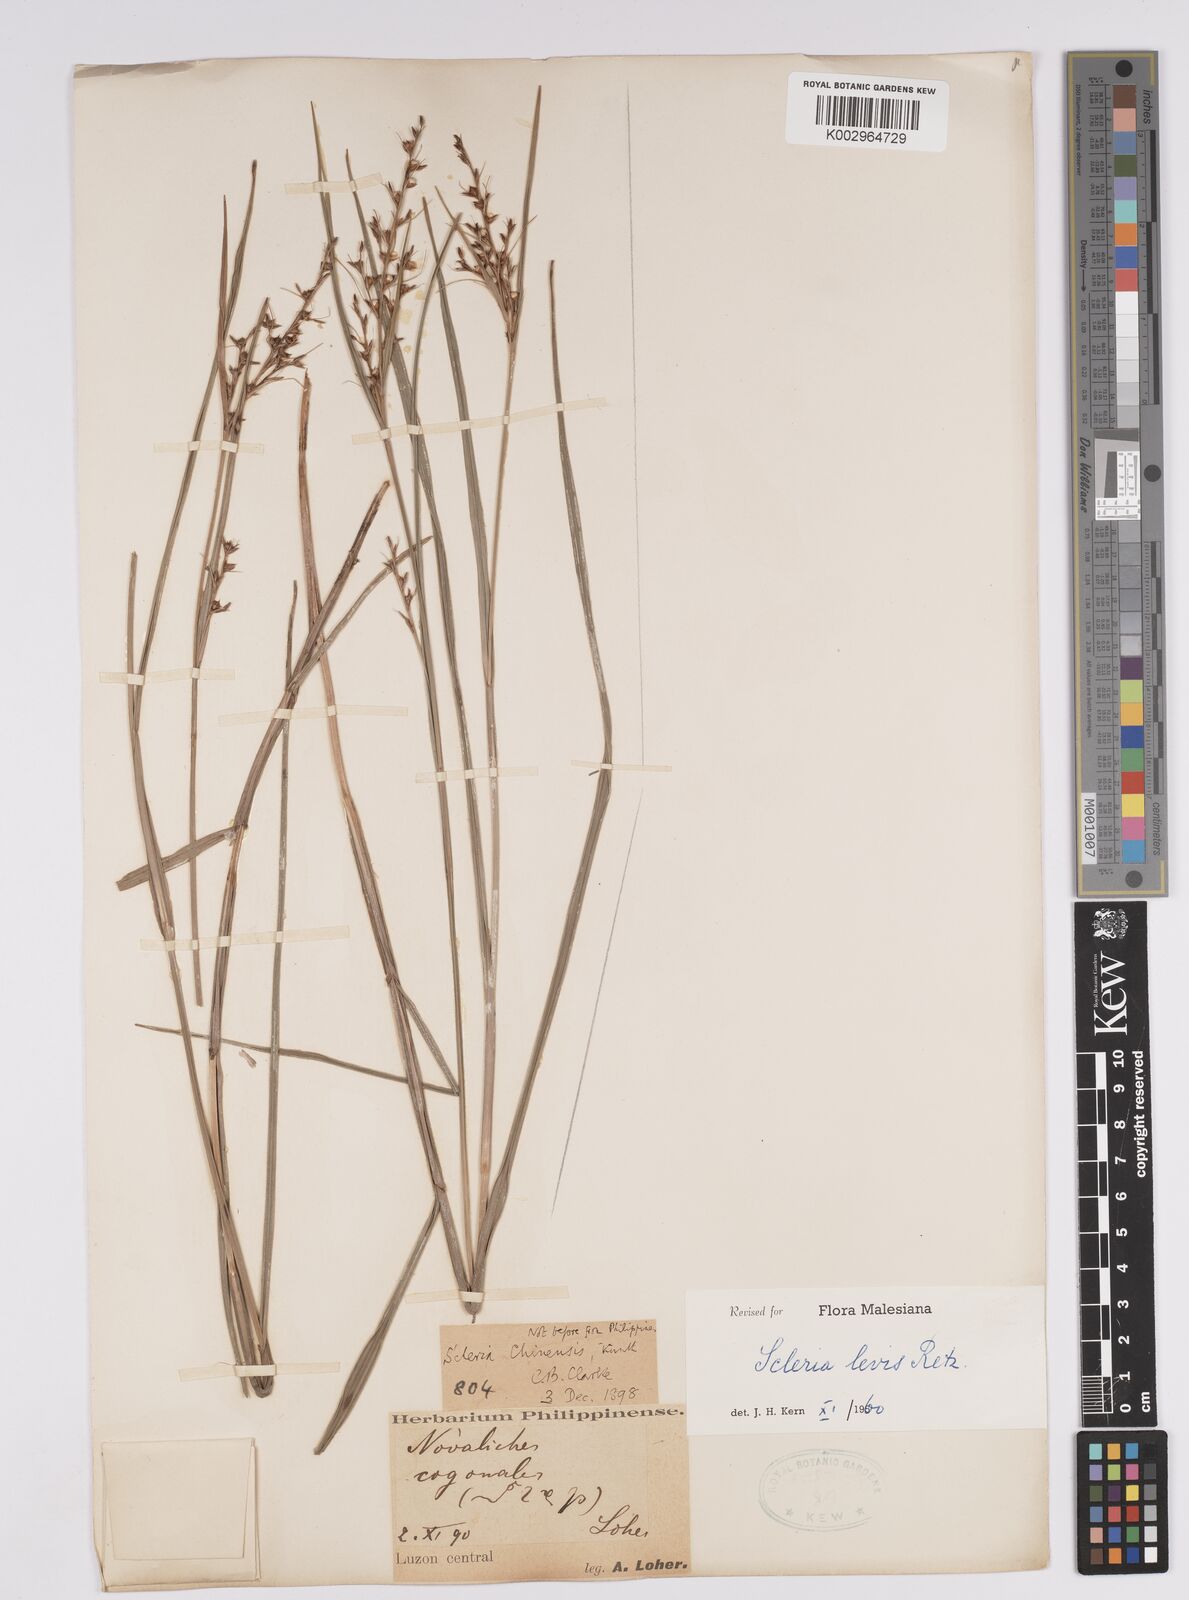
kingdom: Plantae
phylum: Tracheophyta
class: Liliopsida
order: Poales
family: Cyperaceae
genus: Scleria
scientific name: Scleria levis
